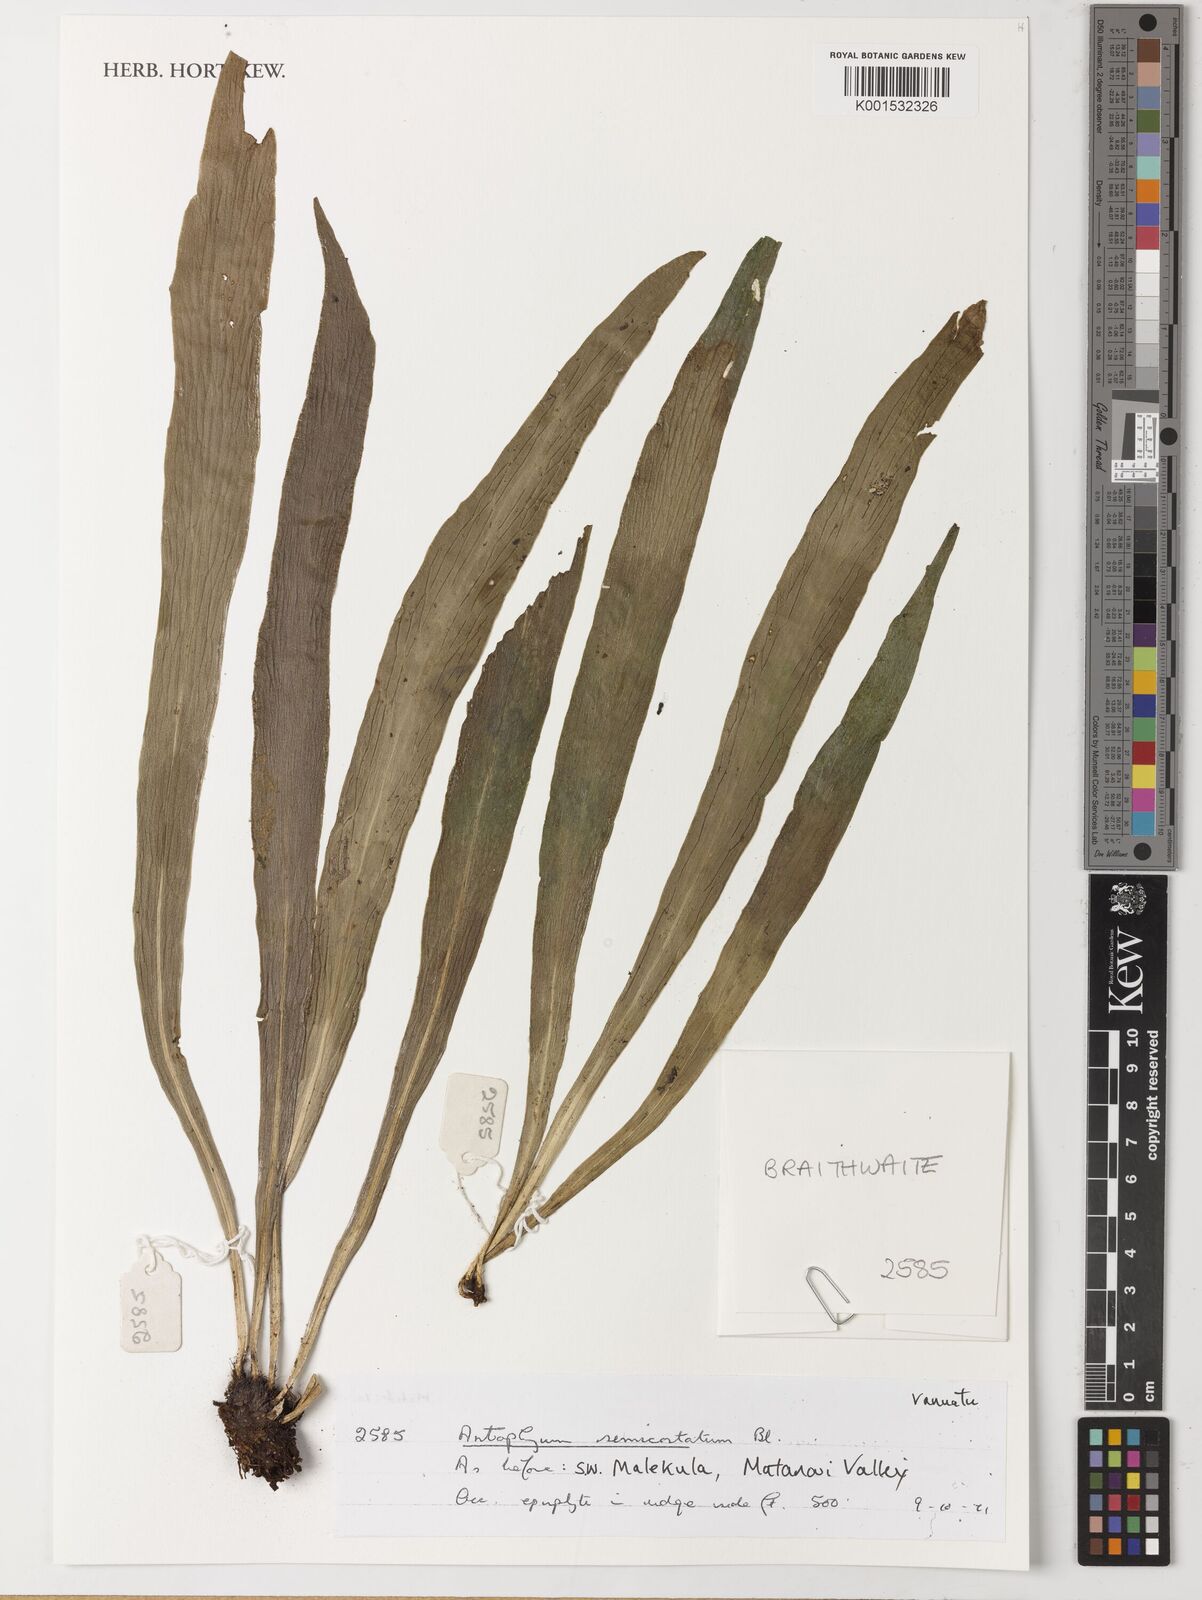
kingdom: Plantae
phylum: Tracheophyta
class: Polypodiopsida
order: Polypodiales
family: Pteridaceae
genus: Antrophyum
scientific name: Antrophyum semicostatum
